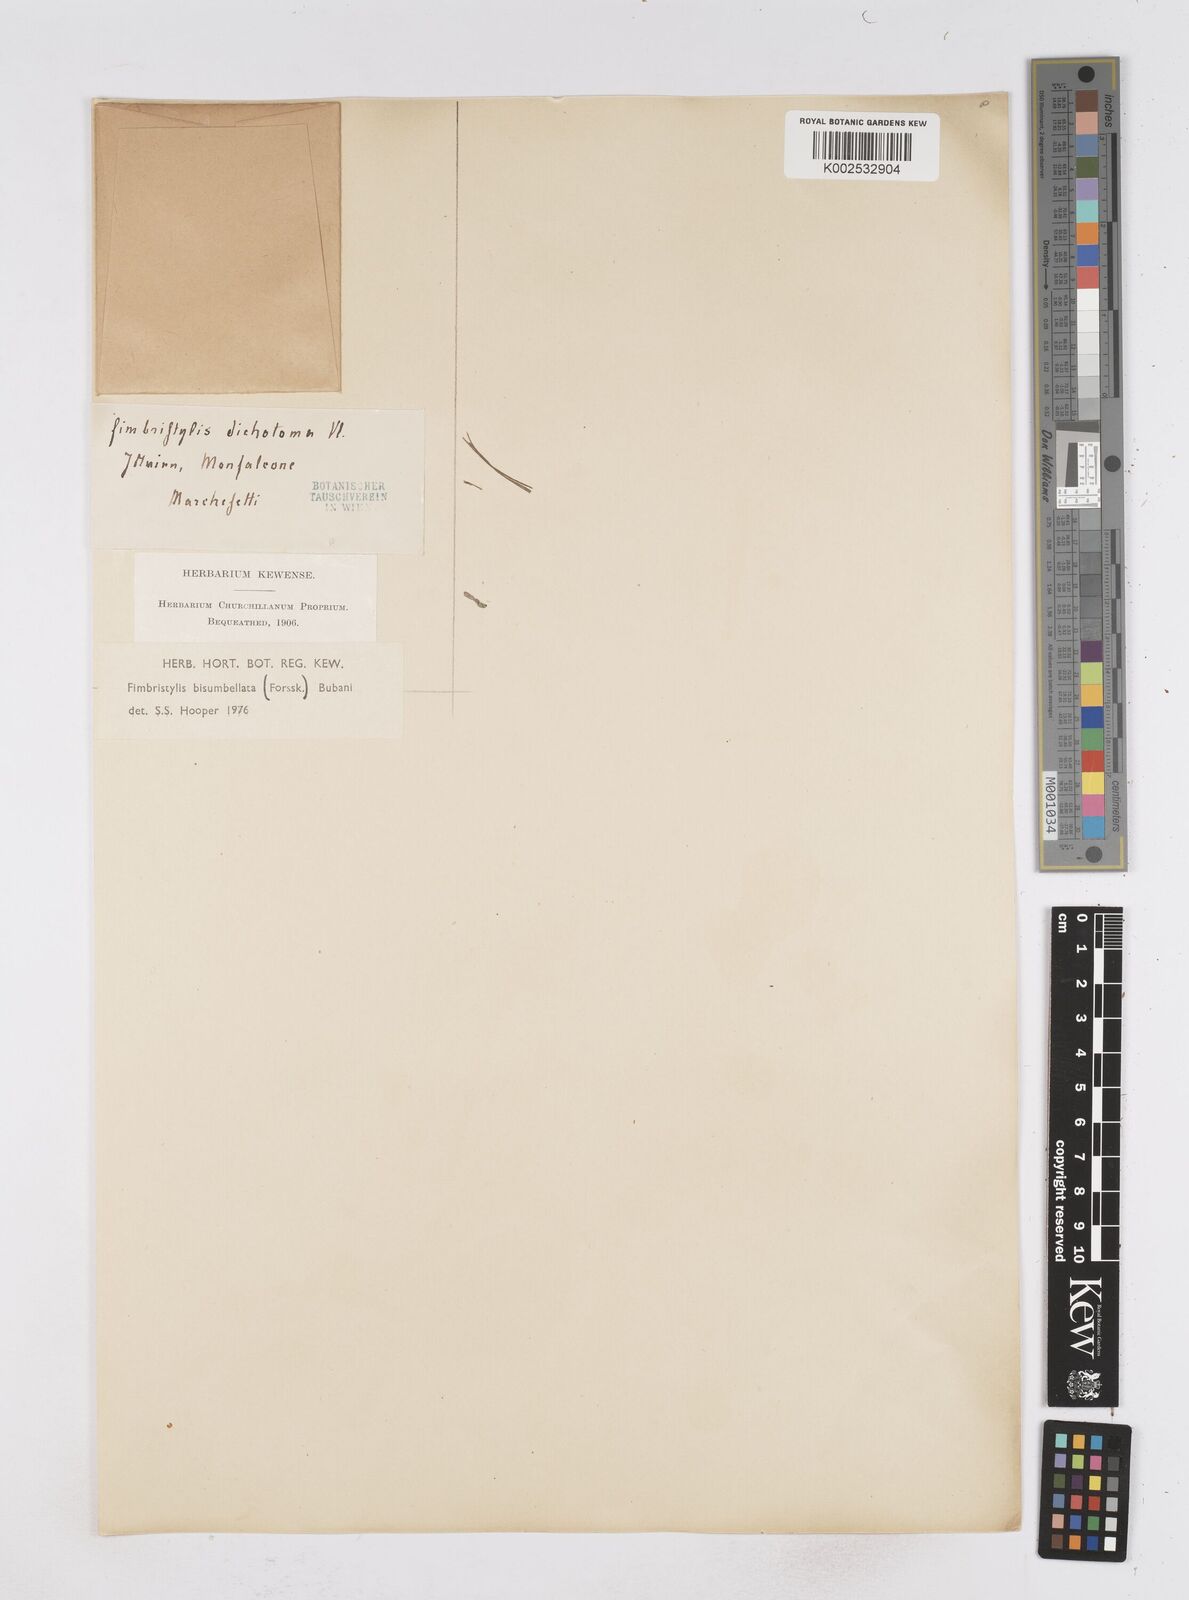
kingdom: Plantae
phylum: Tracheophyta
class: Liliopsida
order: Poales
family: Cyperaceae
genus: Fimbristylis
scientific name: Fimbristylis bisumbellata
